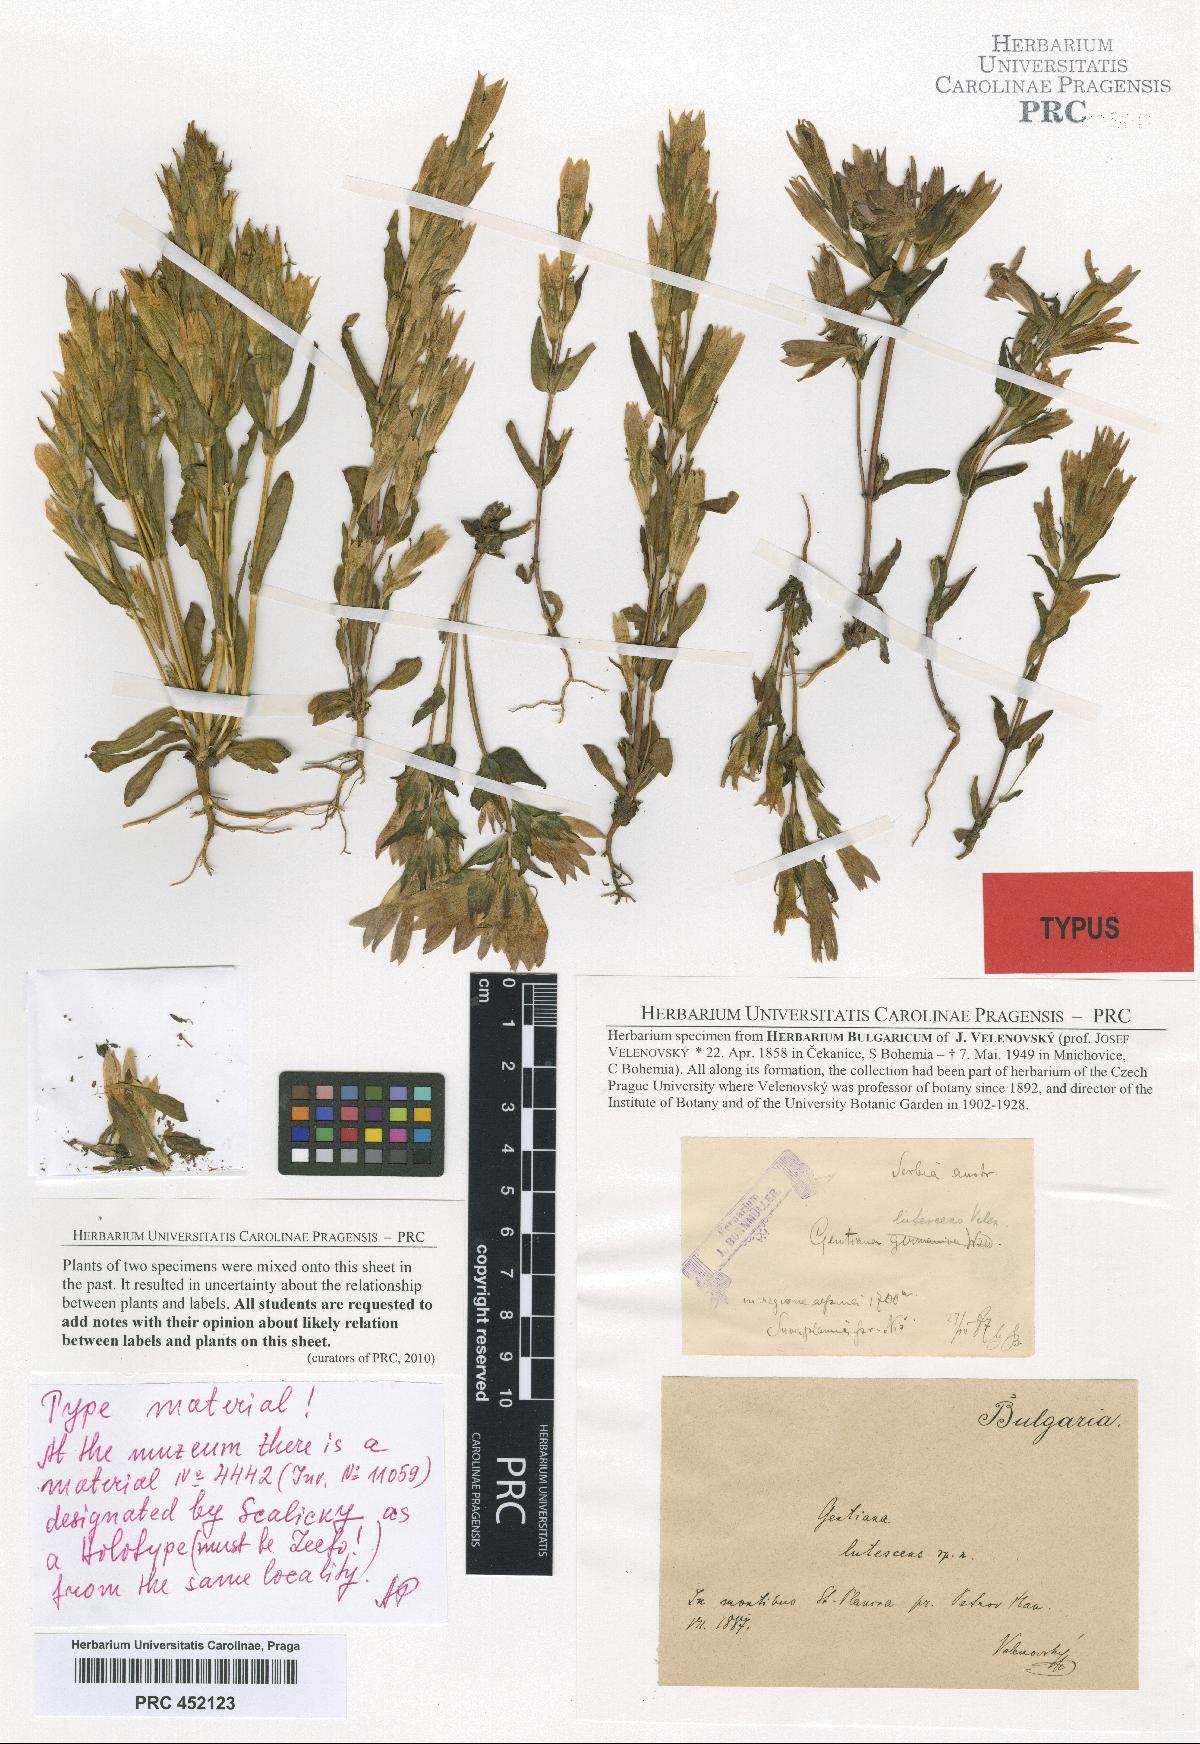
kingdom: Plantae
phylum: Tracheophyta
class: Magnoliopsida
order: Gentianales
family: Gentianaceae
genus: Gentianella
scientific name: Gentianella praecox
